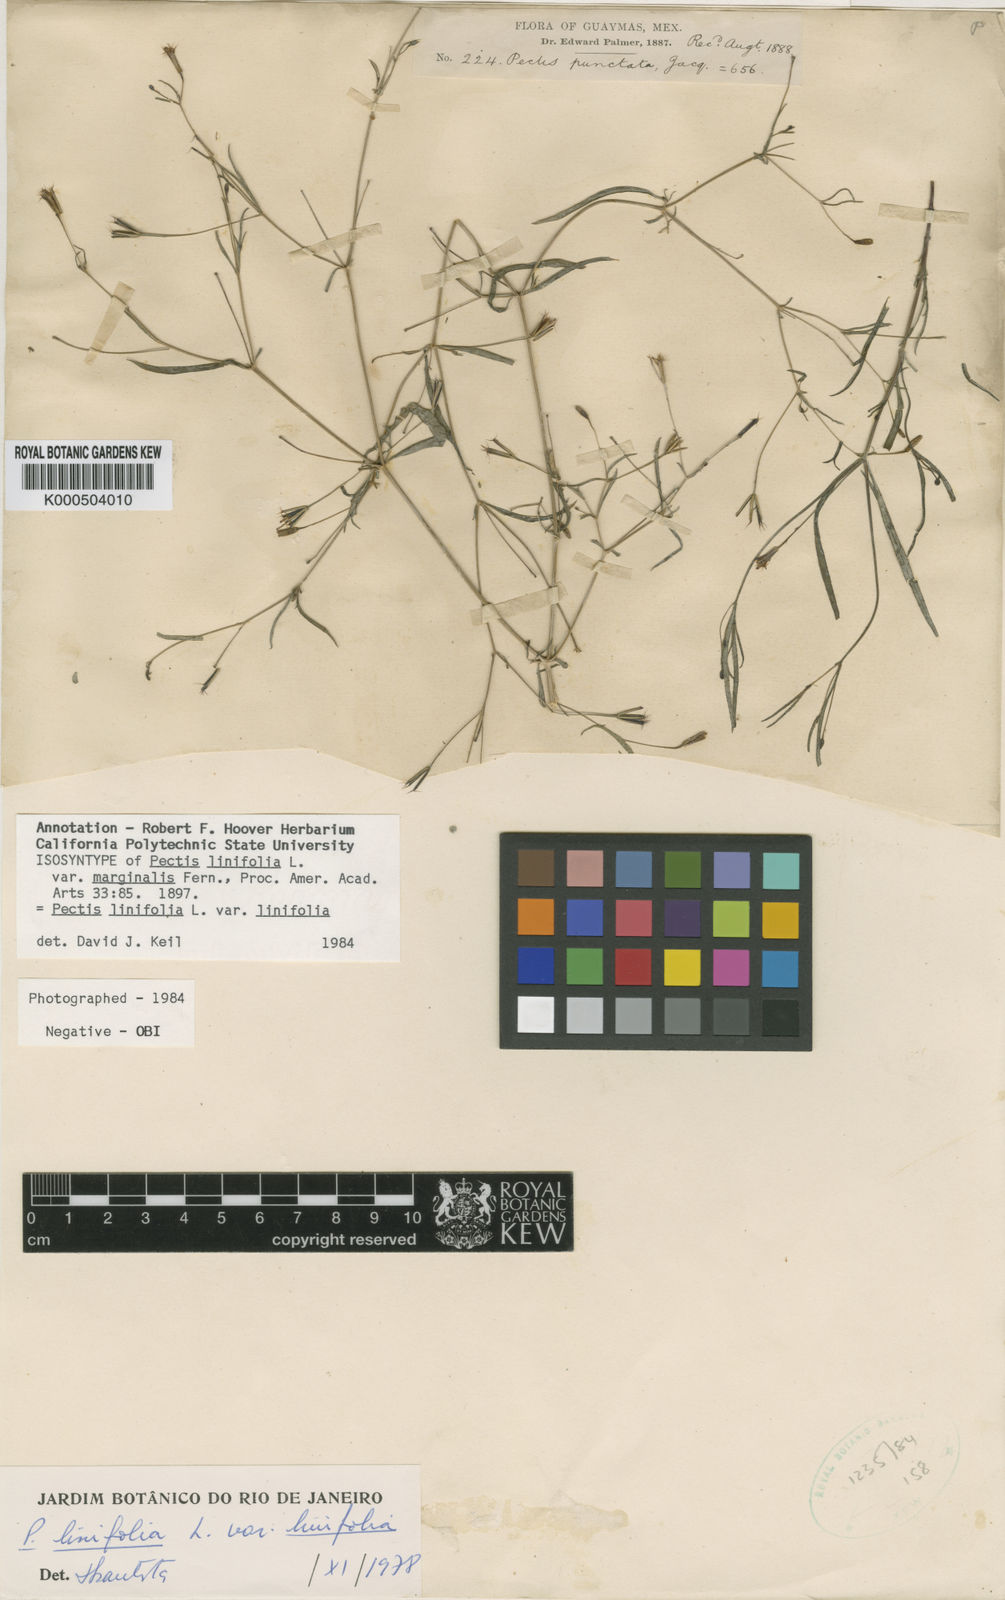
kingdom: Plantae
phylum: Tracheophyta
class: Magnoliopsida
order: Asterales
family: Asteraceae
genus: Pectis
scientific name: Pectis linifolia
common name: Romero macho
